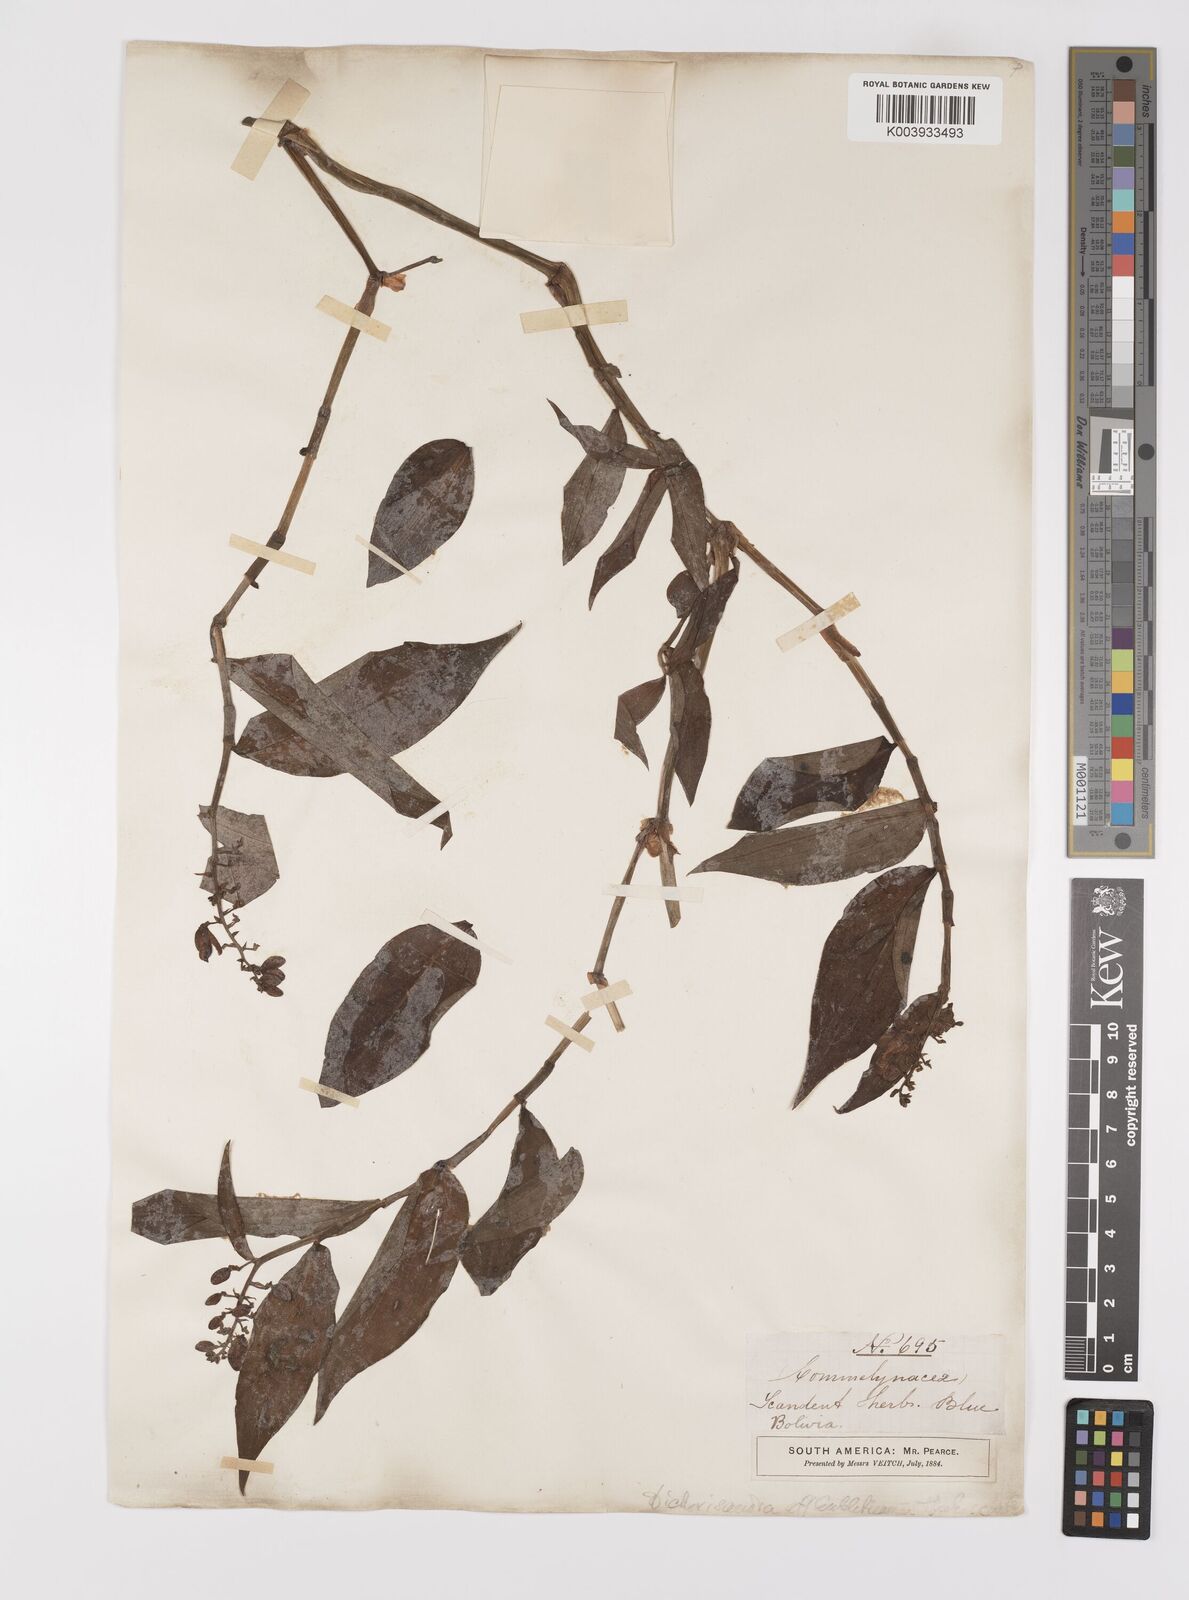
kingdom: Plantae
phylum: Tracheophyta
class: Liliopsida
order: Commelinales
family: Commelinaceae
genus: Dichorisandra
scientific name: Dichorisandra hexandra
